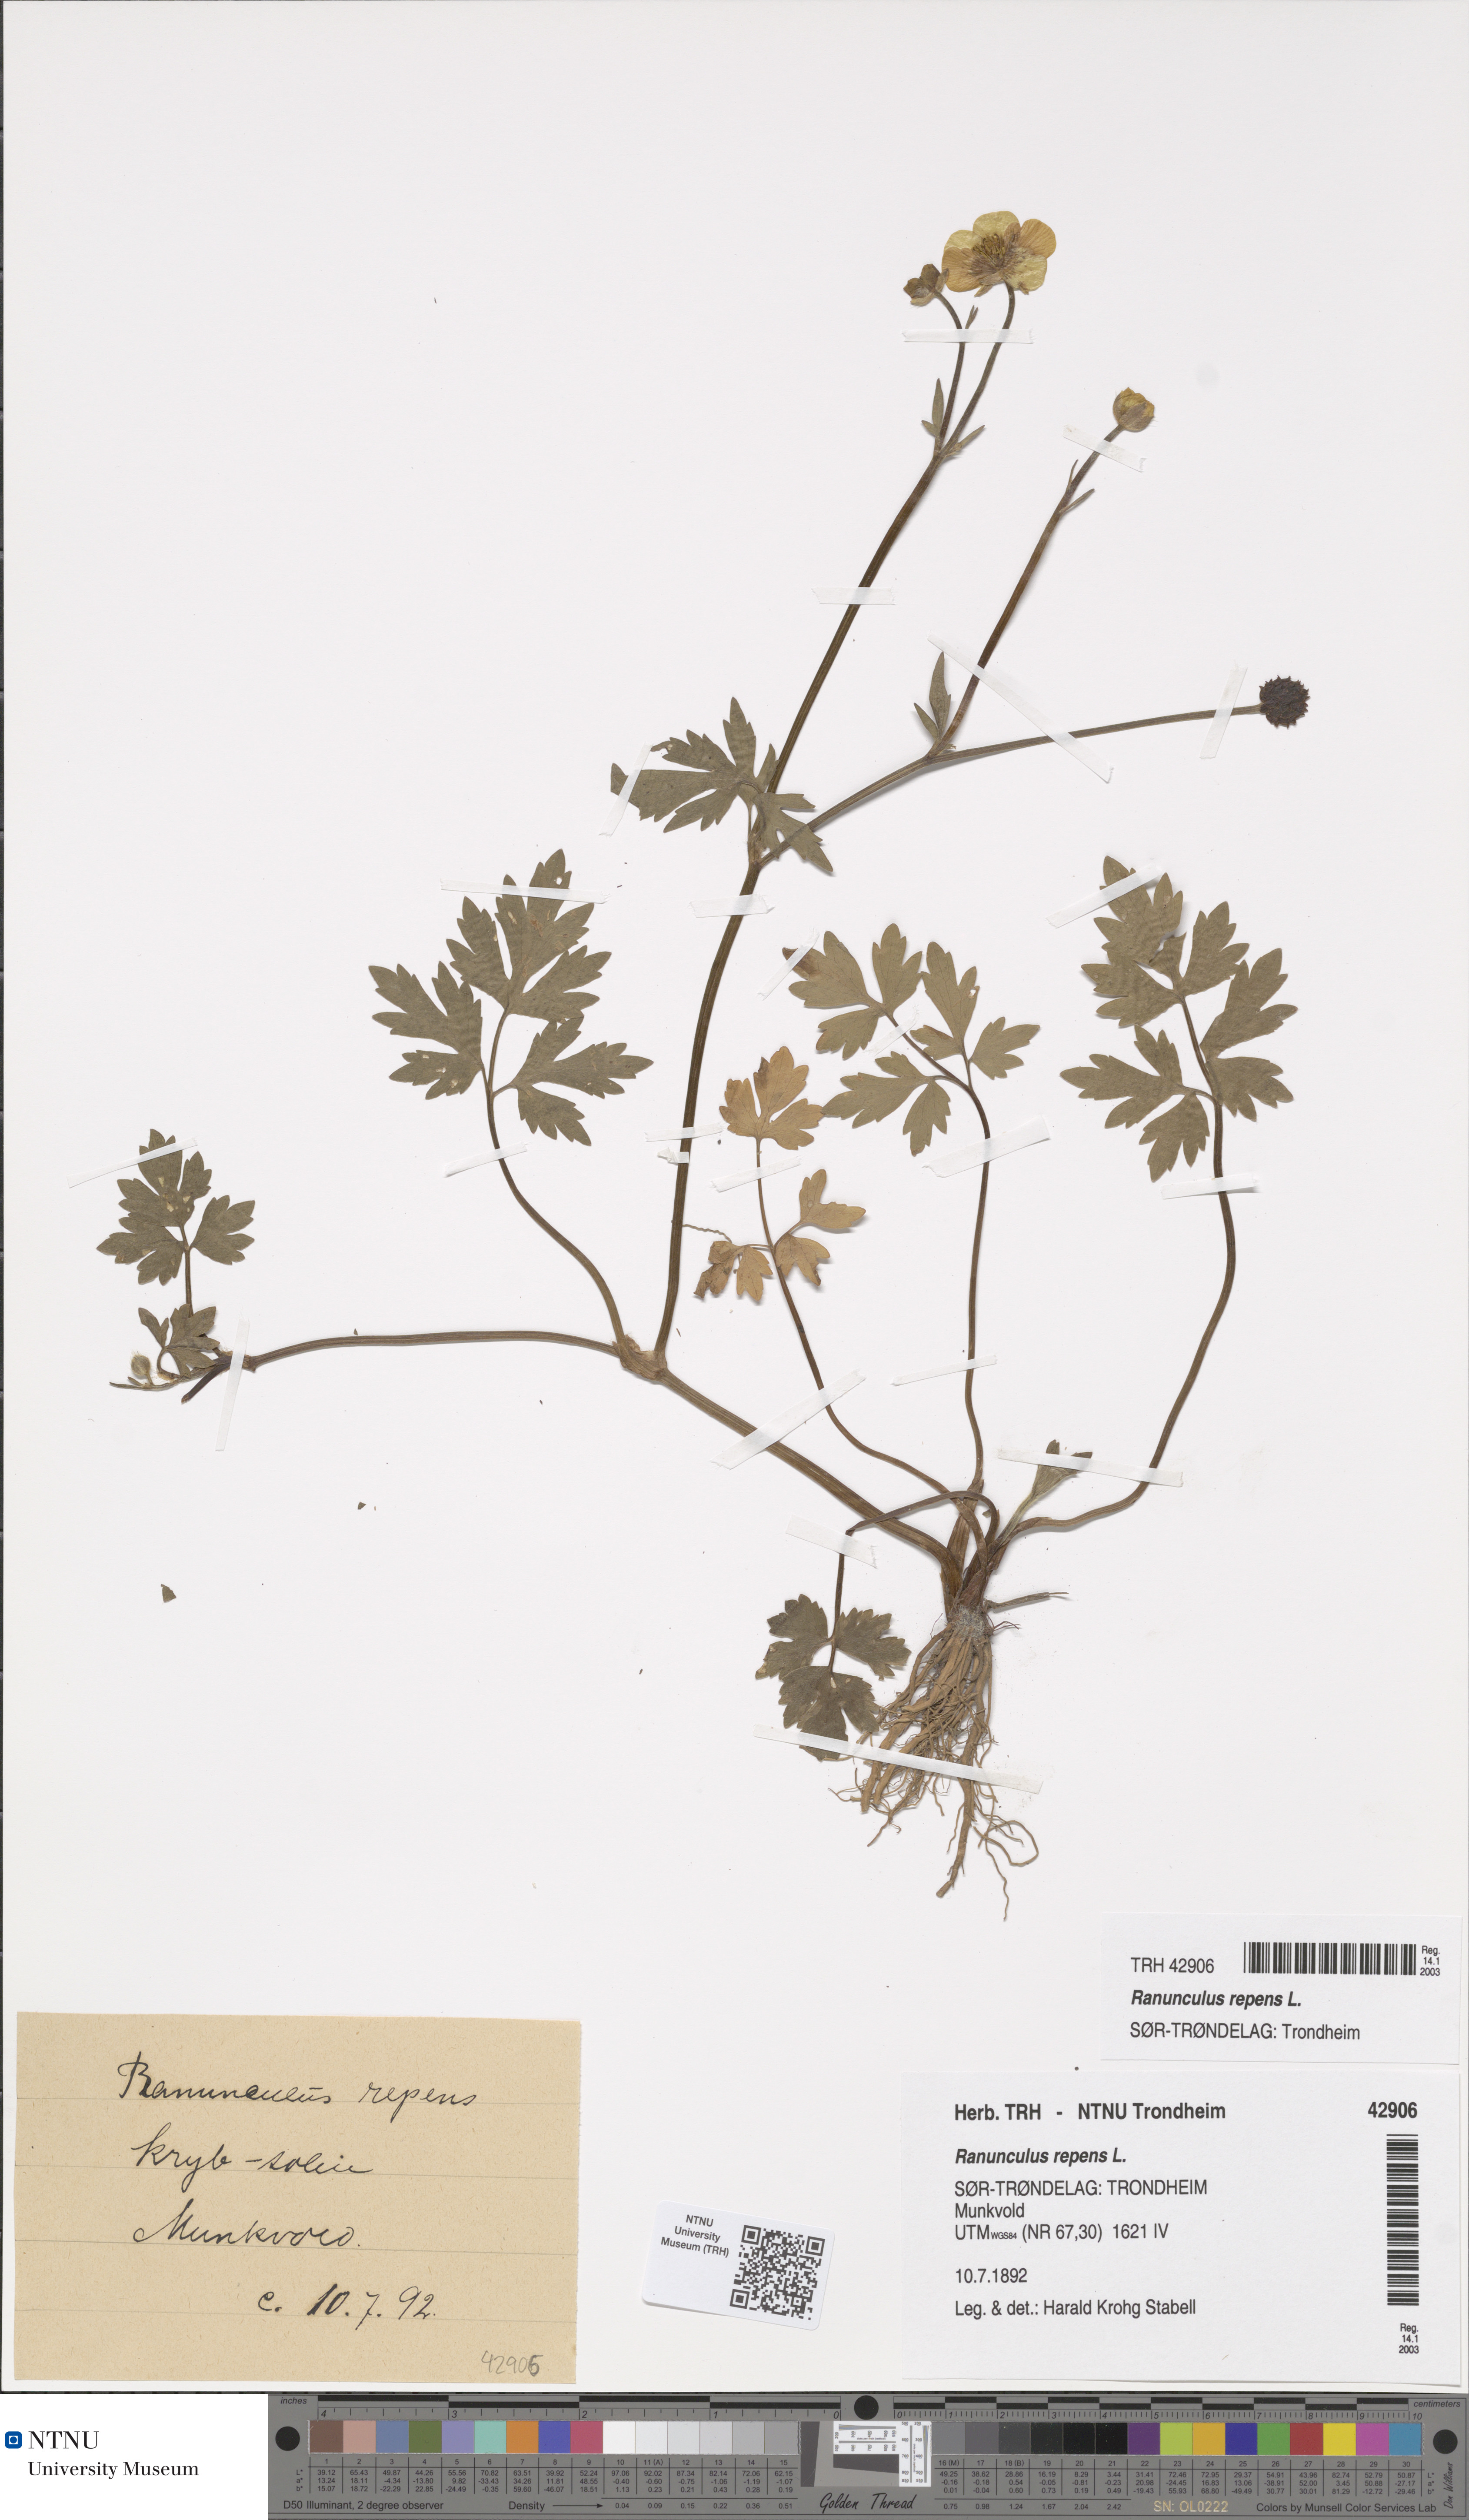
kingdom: Plantae
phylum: Tracheophyta
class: Magnoliopsida
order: Ranunculales
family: Ranunculaceae
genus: Ranunculus
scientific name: Ranunculus repens
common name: Creeping buttercup
